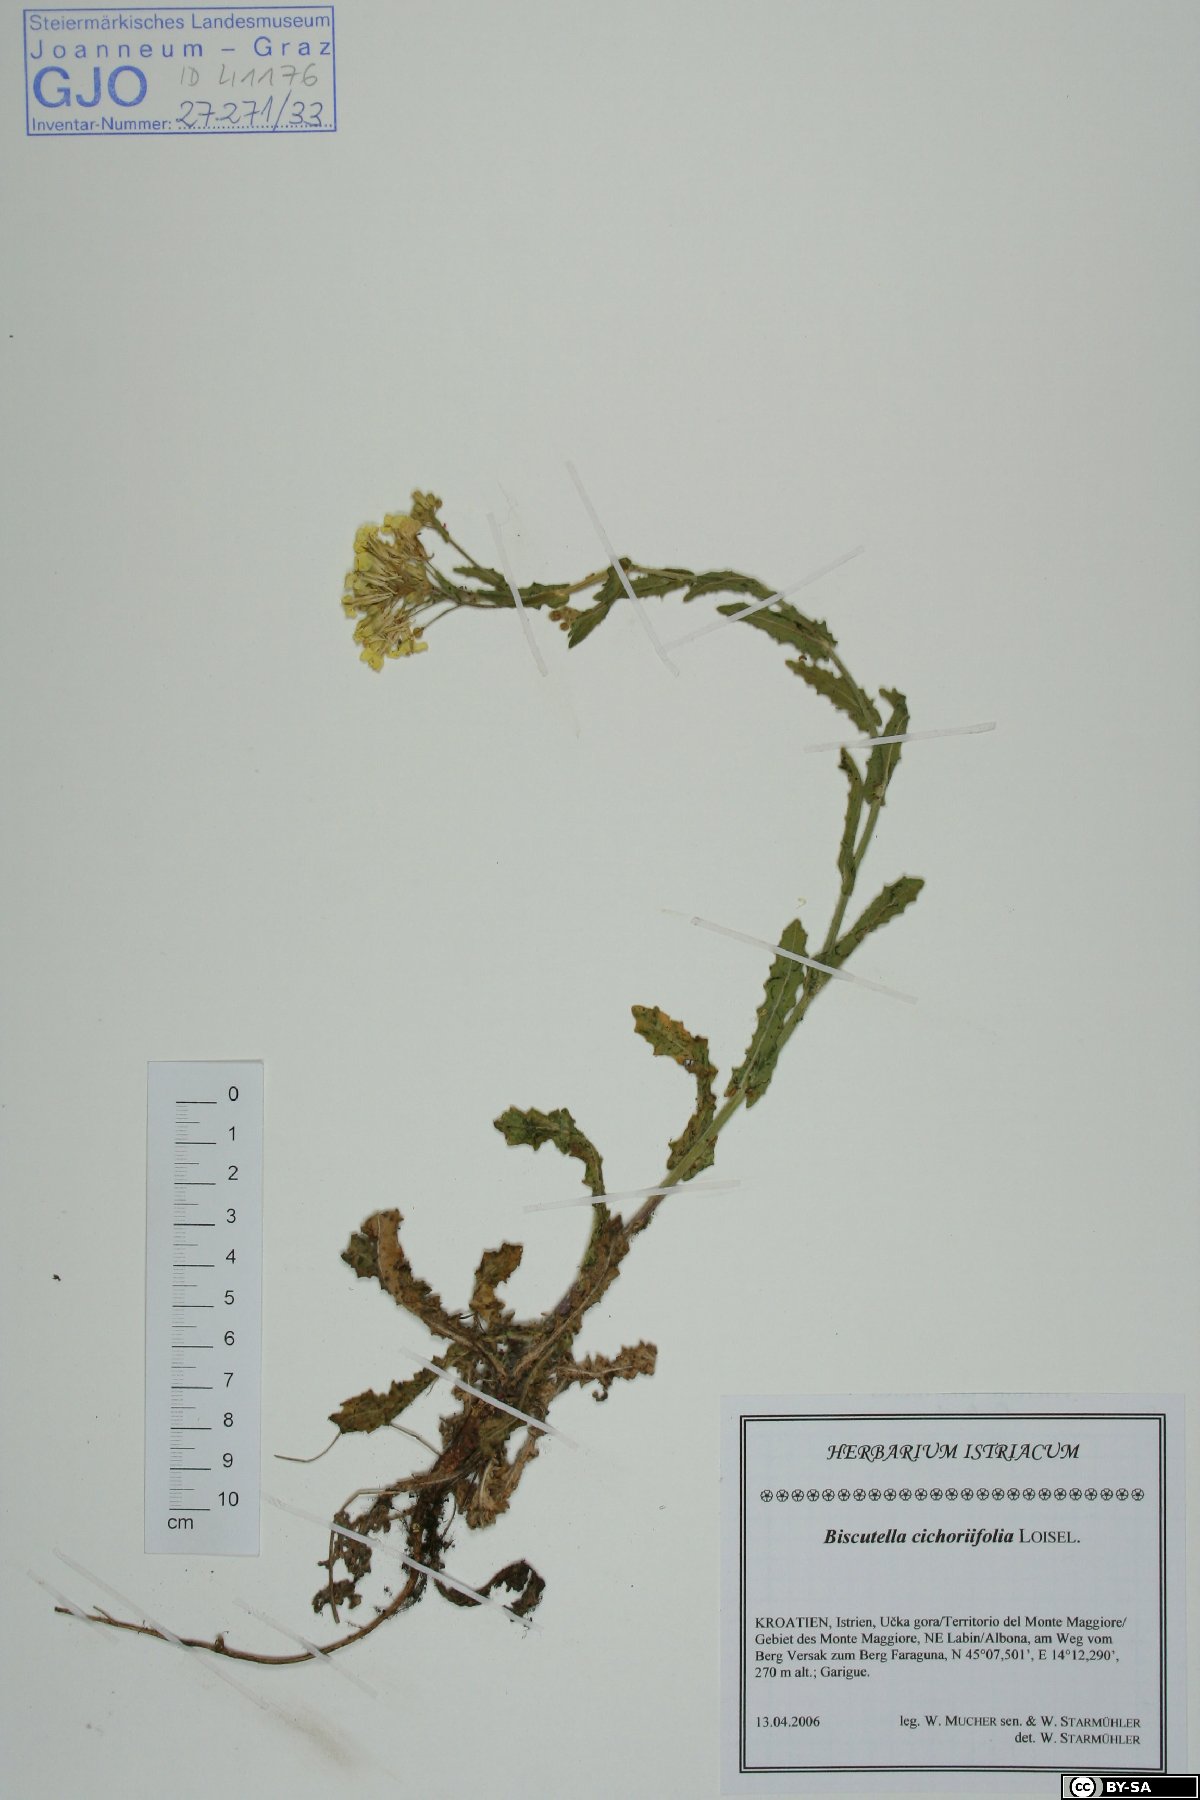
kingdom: Plantae
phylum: Tracheophyta
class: Magnoliopsida
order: Brassicales
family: Brassicaceae
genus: Biscutella
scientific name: Biscutella cichoriifolia
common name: Chicory-leaf buckler mustard
